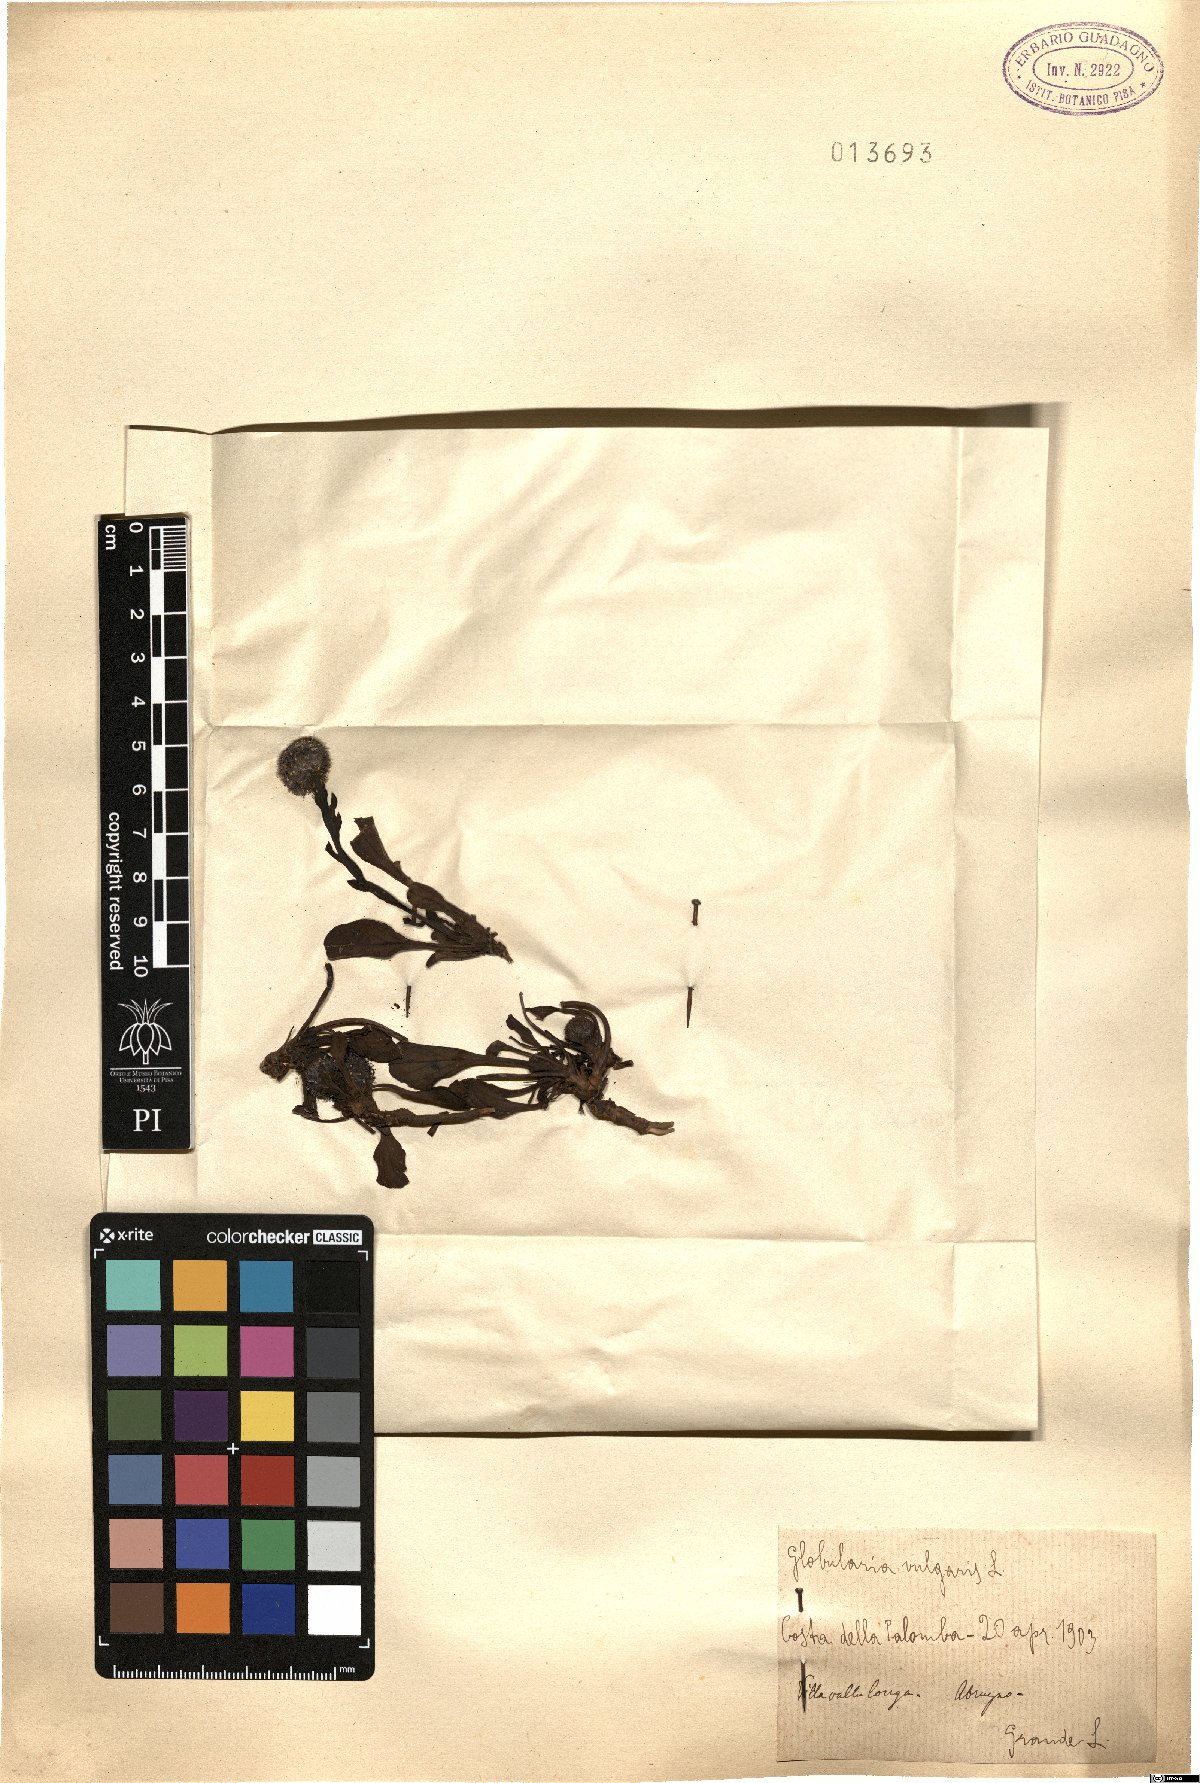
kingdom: Plantae
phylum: Tracheophyta
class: Magnoliopsida
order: Lamiales
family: Plantaginaceae
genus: Globularia
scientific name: Globularia vulgaris
